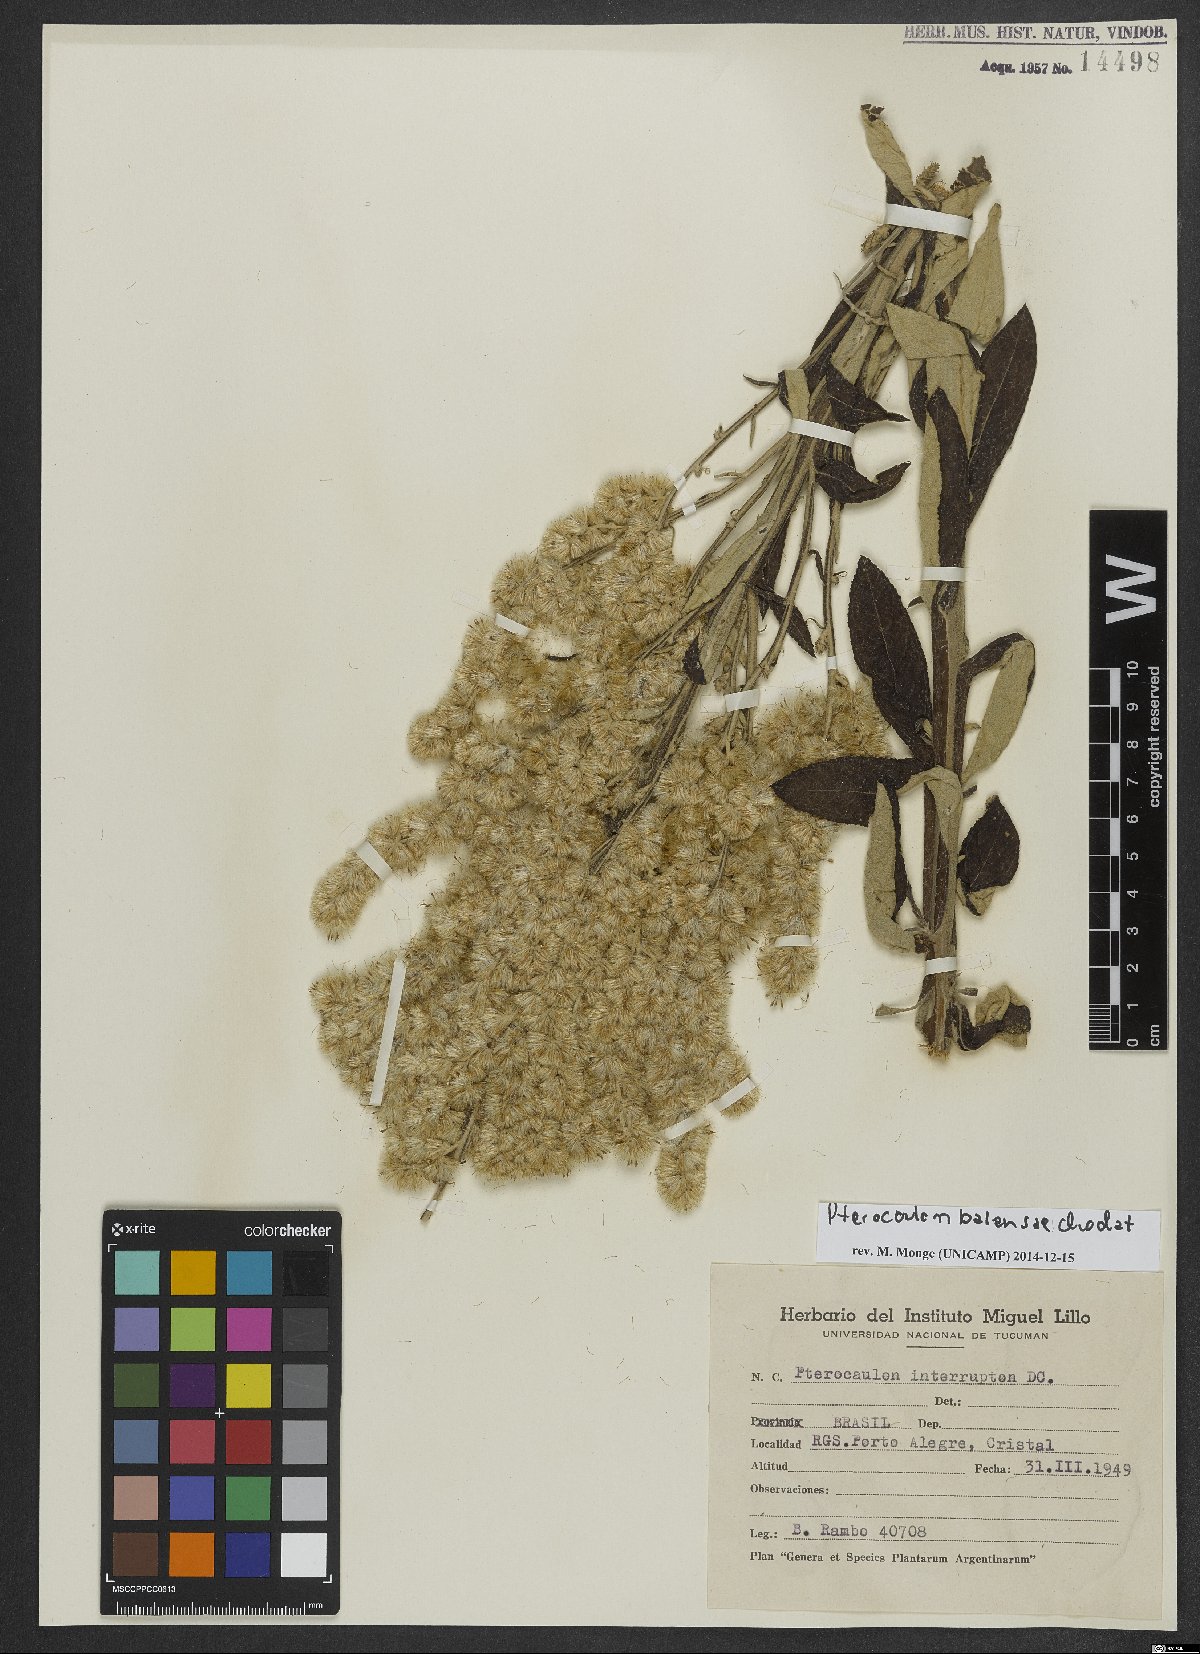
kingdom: Plantae
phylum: Tracheophyta
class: Magnoliopsida
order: Asterales
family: Asteraceae
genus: Pterocaulon
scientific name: Pterocaulon balansae
